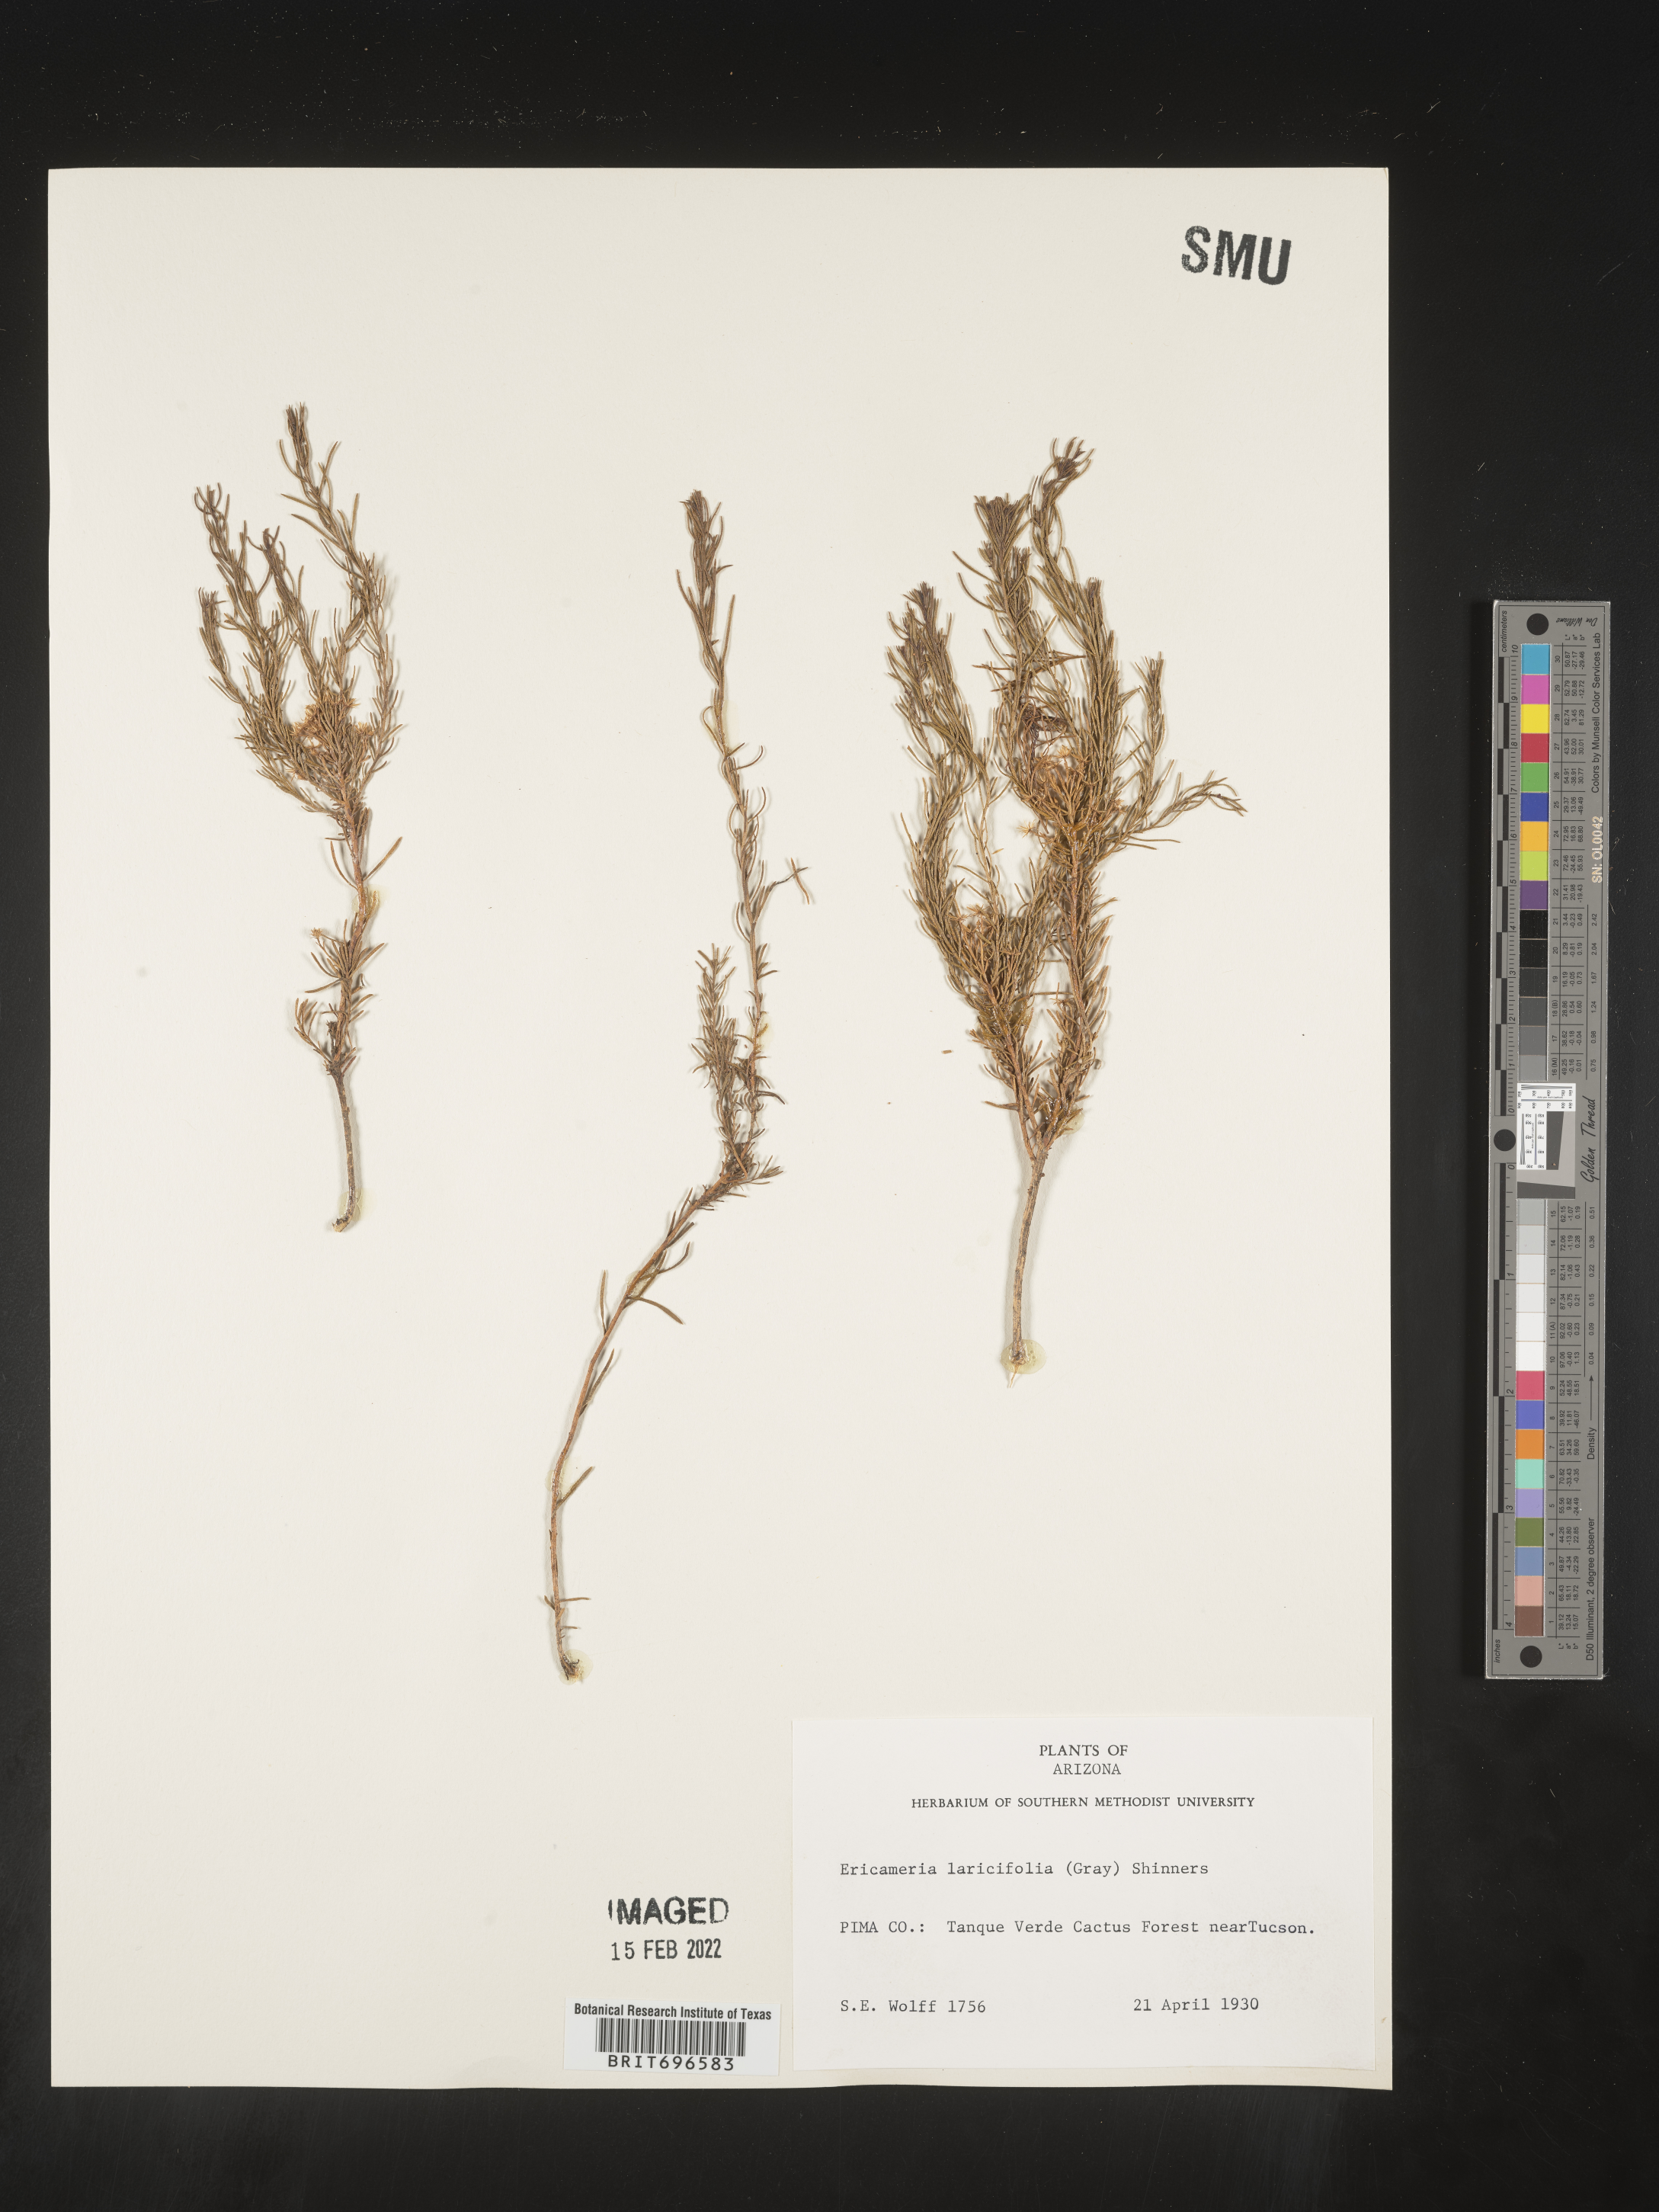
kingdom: Plantae
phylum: Tracheophyta
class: Magnoliopsida
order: Asterales
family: Asteraceae
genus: Ericameria
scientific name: Ericameria laricifolia
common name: Turpentine-bush
